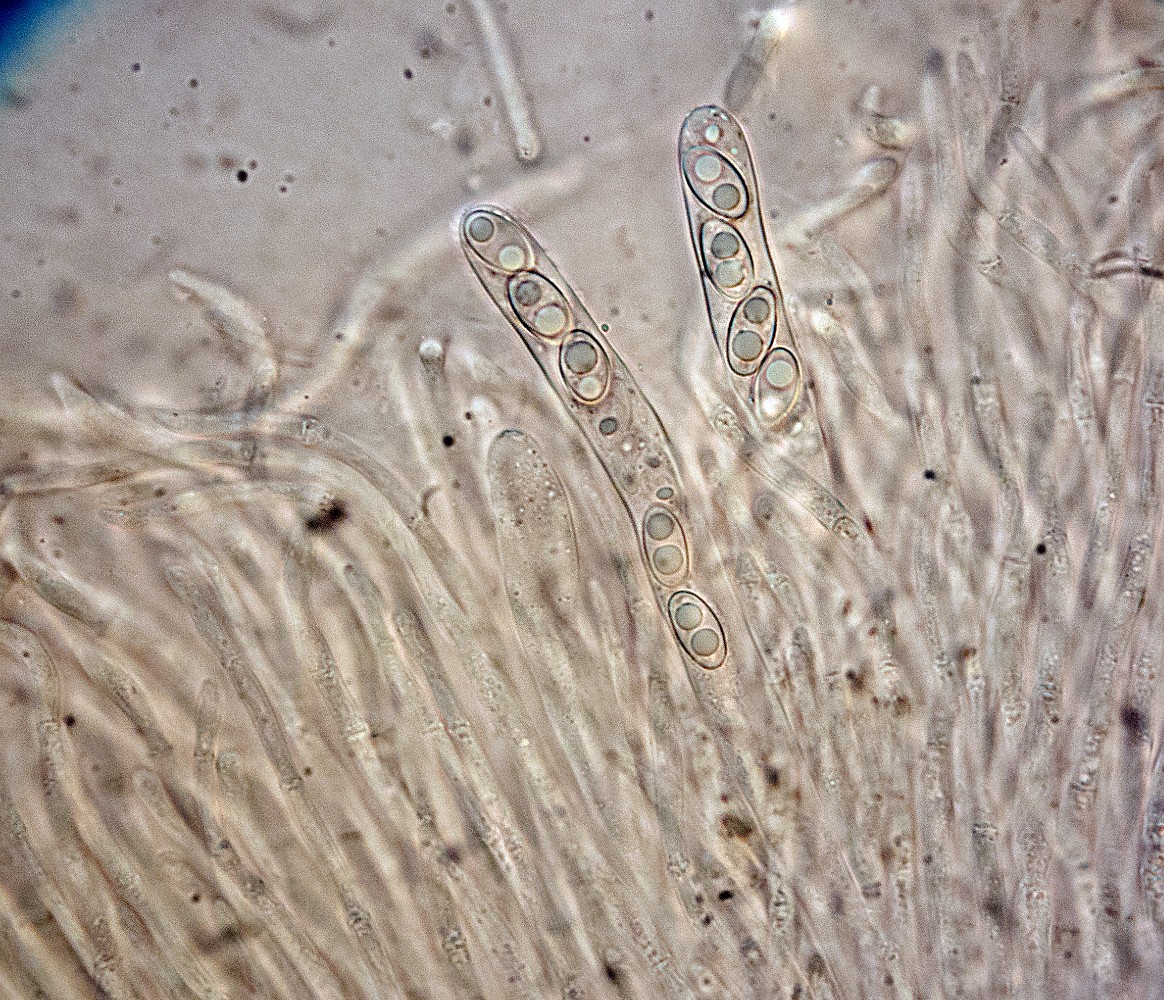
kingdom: Fungi
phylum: Ascomycota
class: Pezizomycetes
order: Pezizales
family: Otideaceae
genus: Otidea
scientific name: Otidea onotica
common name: æsel-ørebæger
